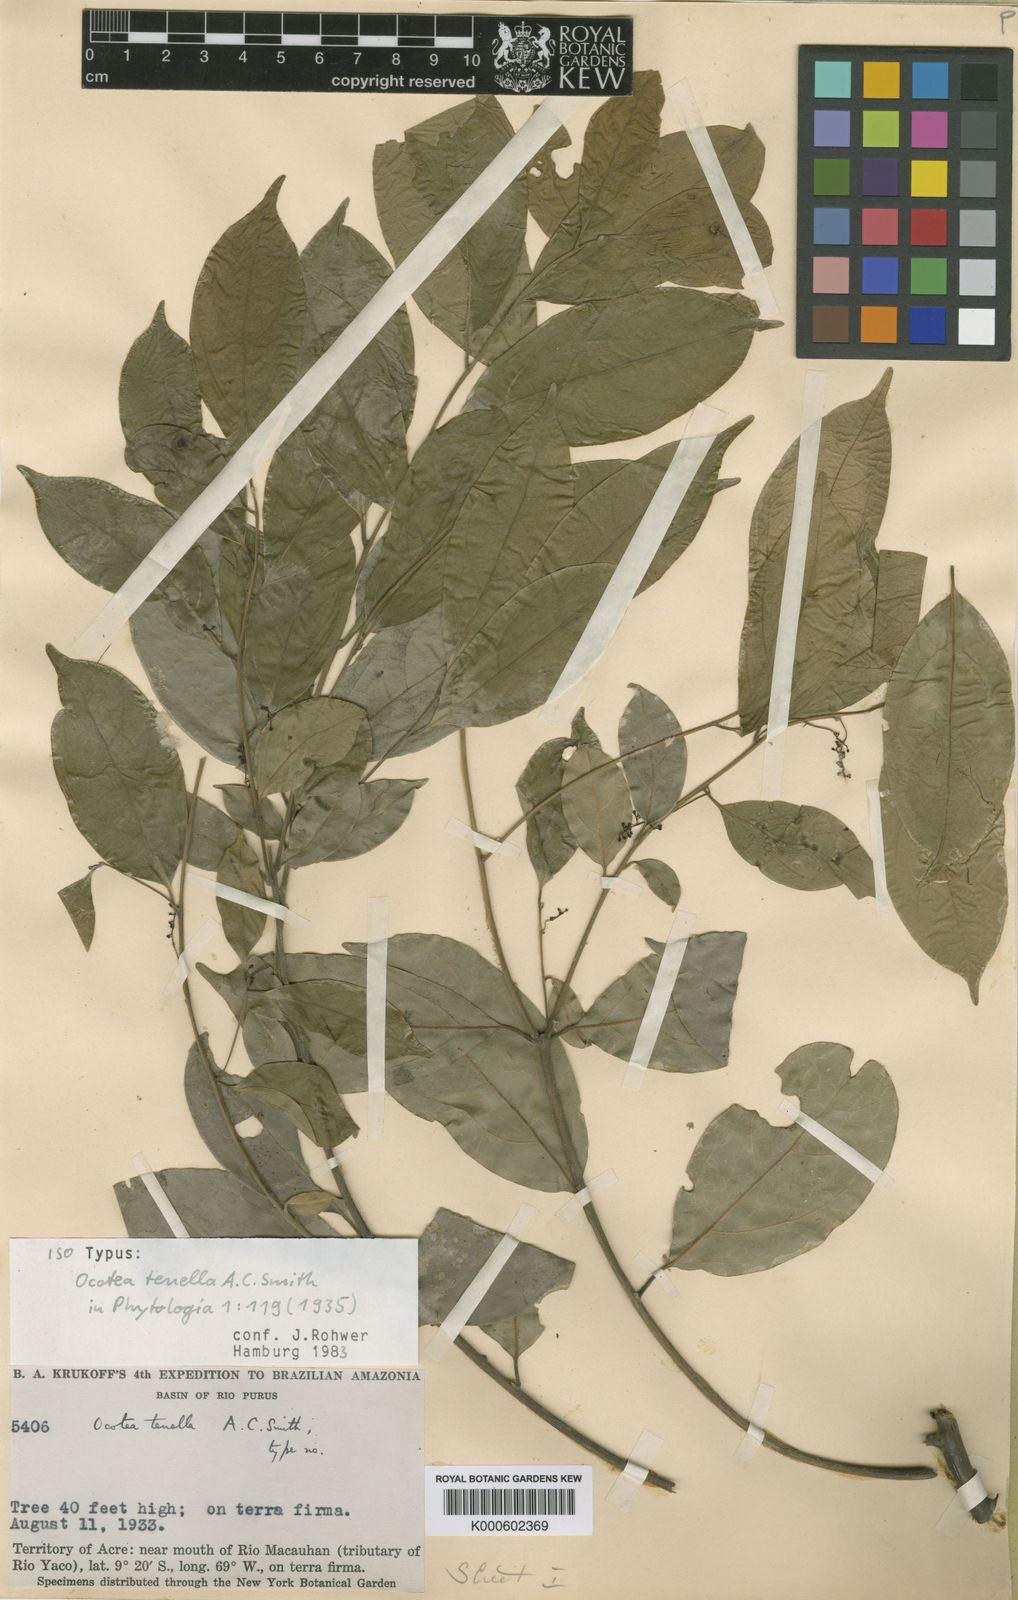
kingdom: Plantae
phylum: Tracheophyta
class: Magnoliopsida
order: Laurales
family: Lauraceae
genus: Ocotea
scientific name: Ocotea tenella
